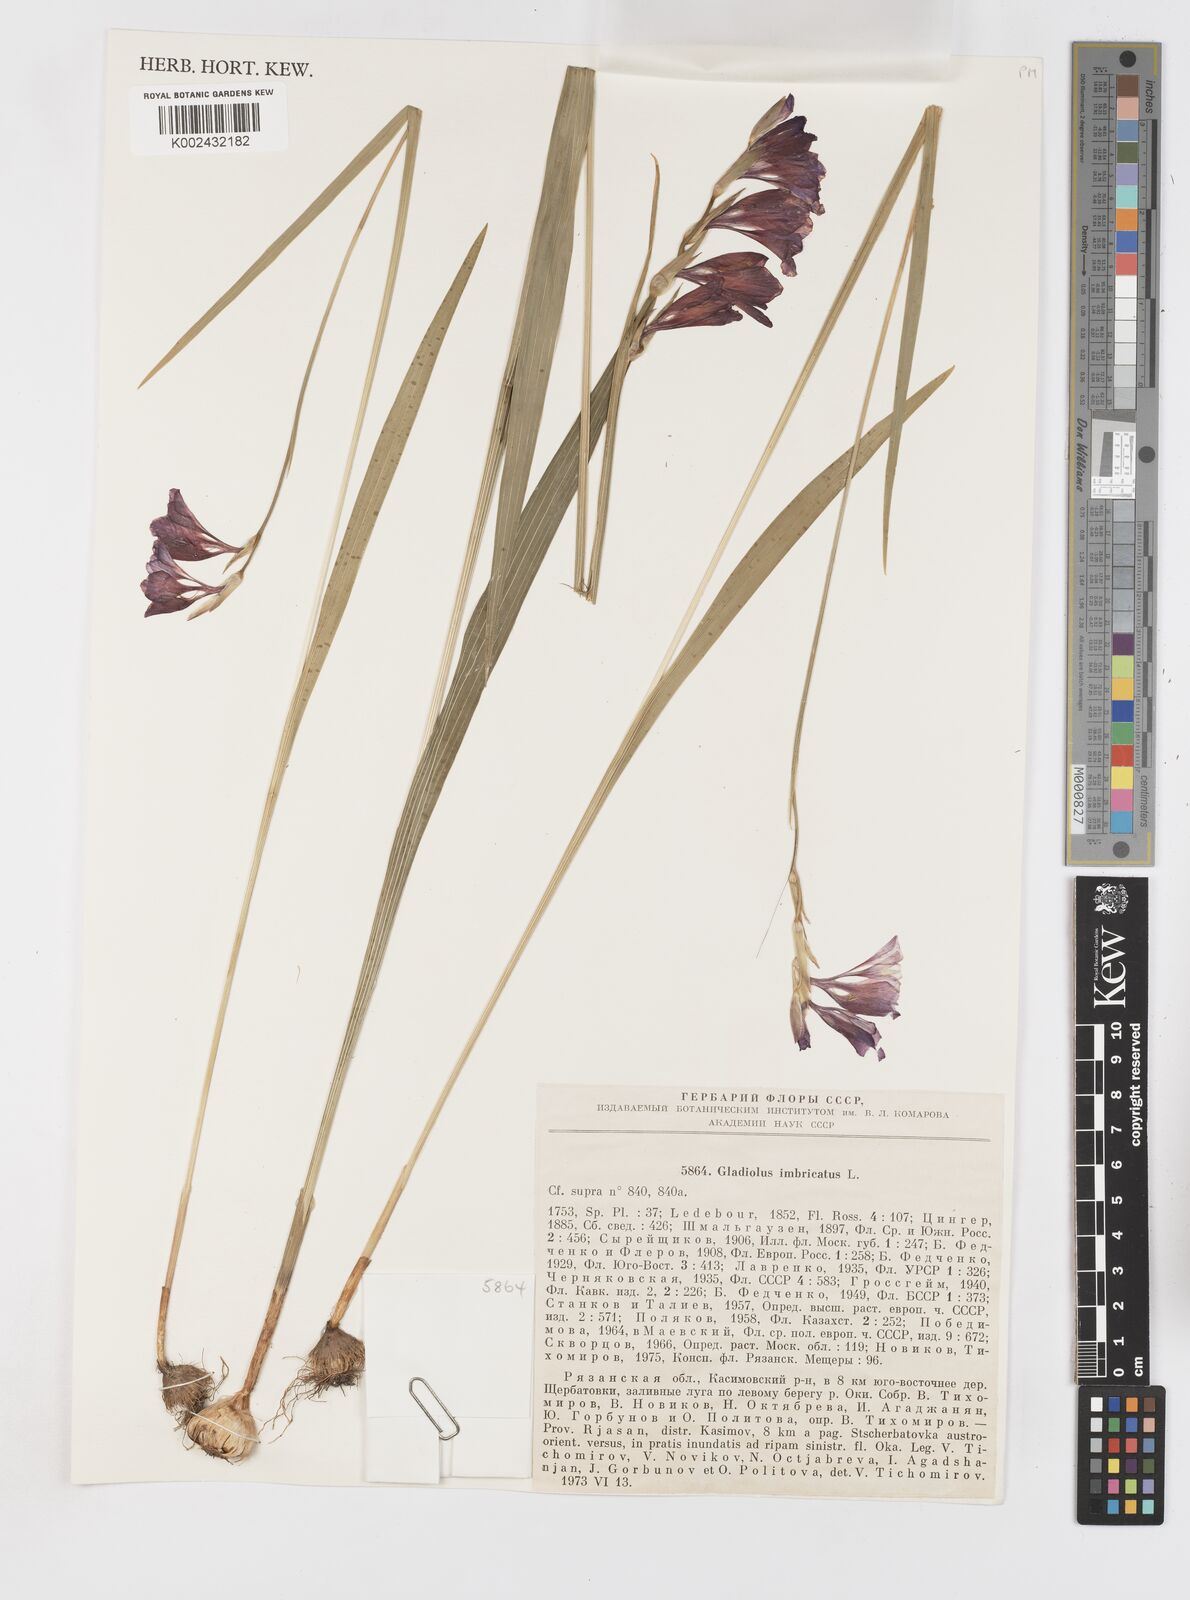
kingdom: Plantae
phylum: Tracheophyta
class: Liliopsida
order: Asparagales
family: Iridaceae
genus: Gladiolus
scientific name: Gladiolus imbricatus
